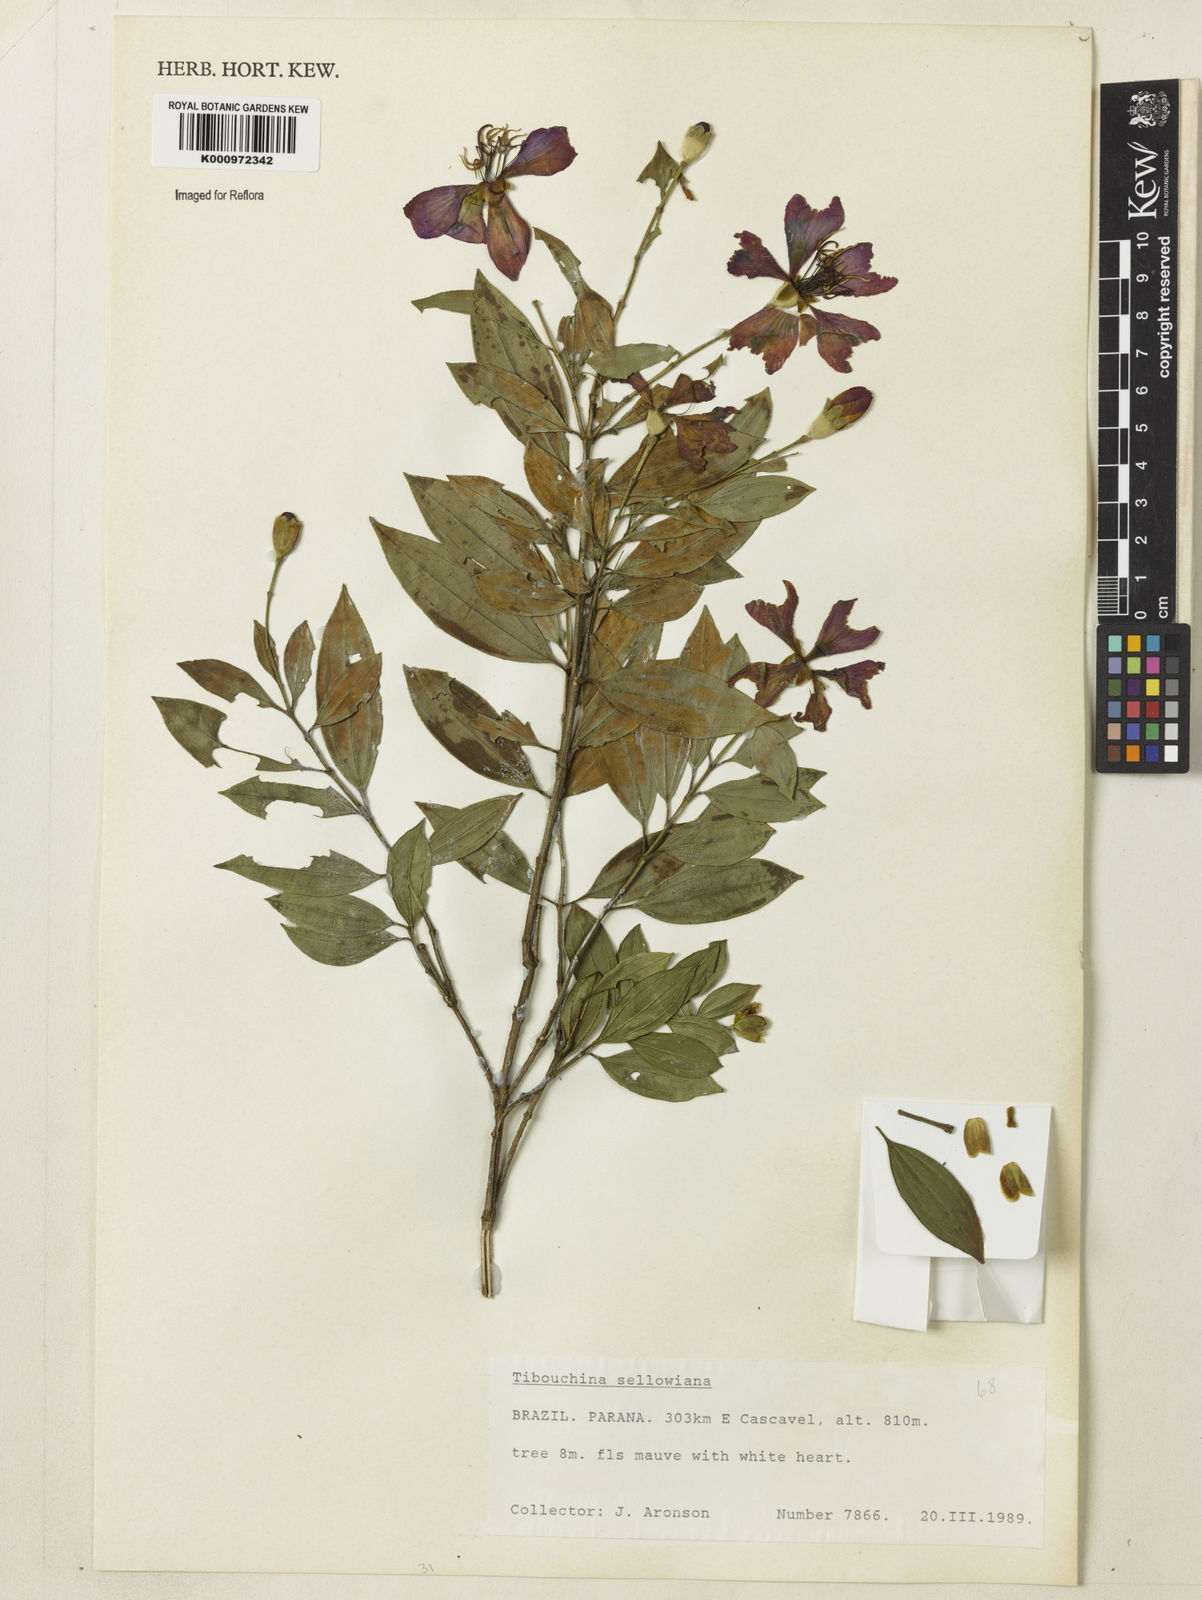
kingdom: Plantae
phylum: Tracheophyta
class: Magnoliopsida
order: Myrtales
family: Melastomataceae
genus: Pleroma
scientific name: Pleroma sellowianum
